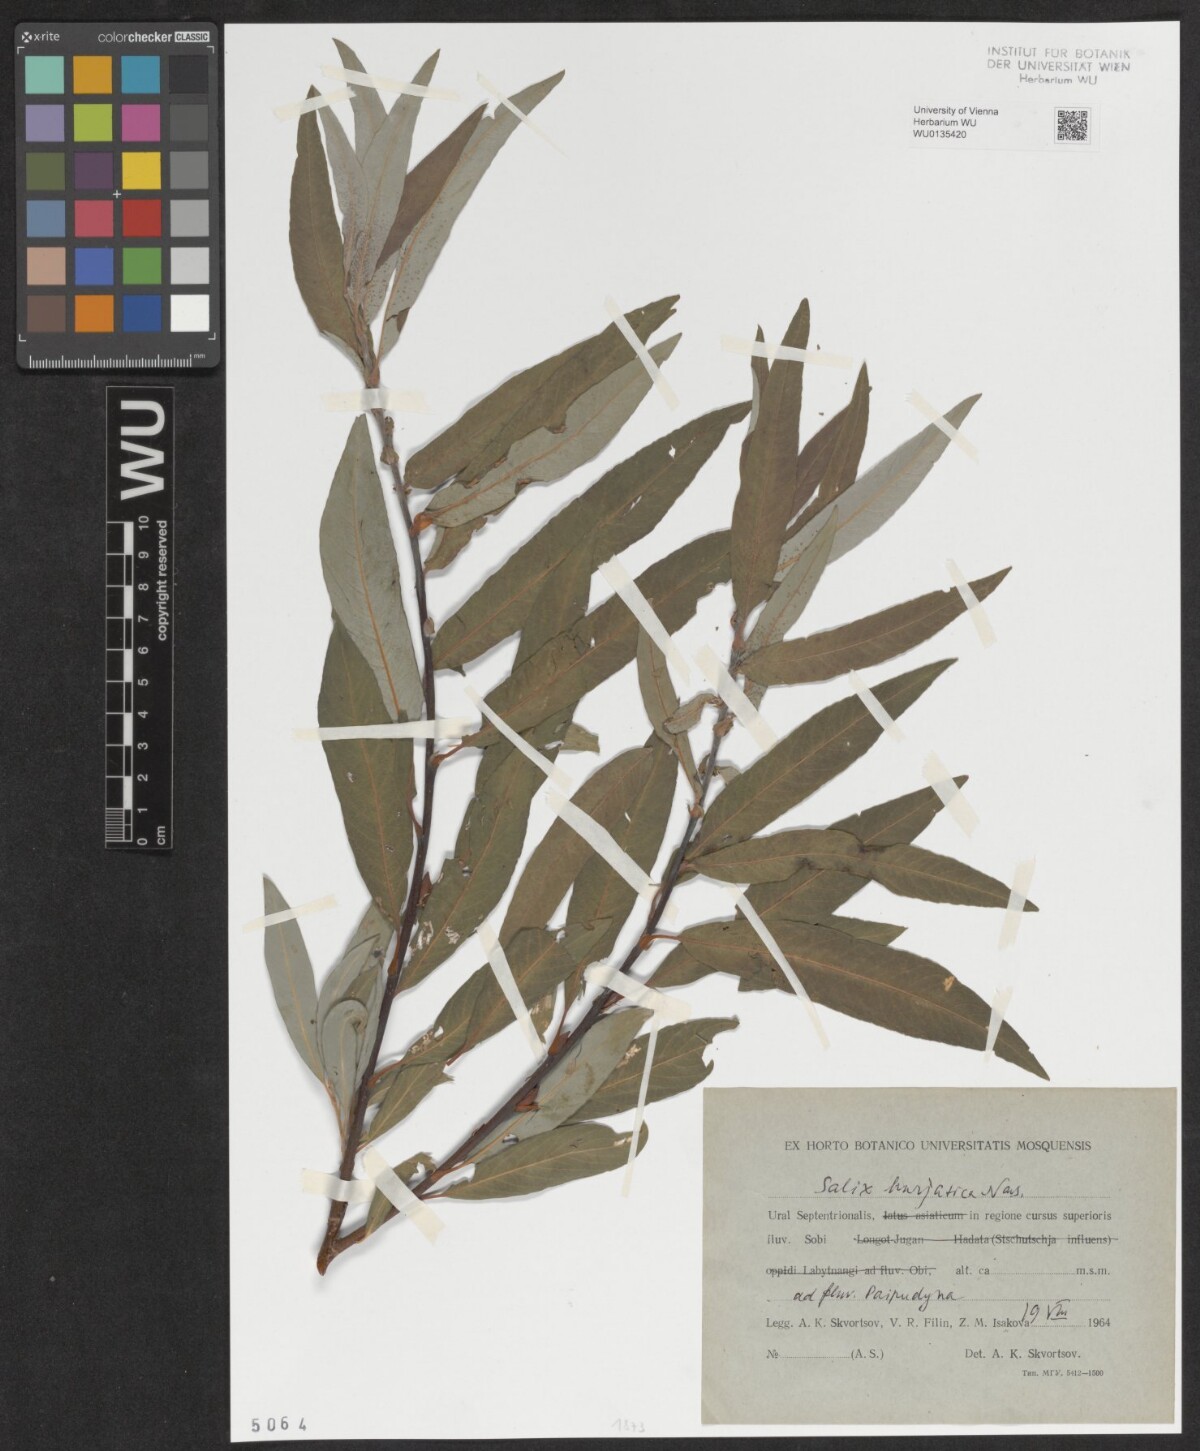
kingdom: Plantae
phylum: Tracheophyta
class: Magnoliopsida
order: Malpighiales
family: Salicaceae
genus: Salix
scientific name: Salix gmelinii
